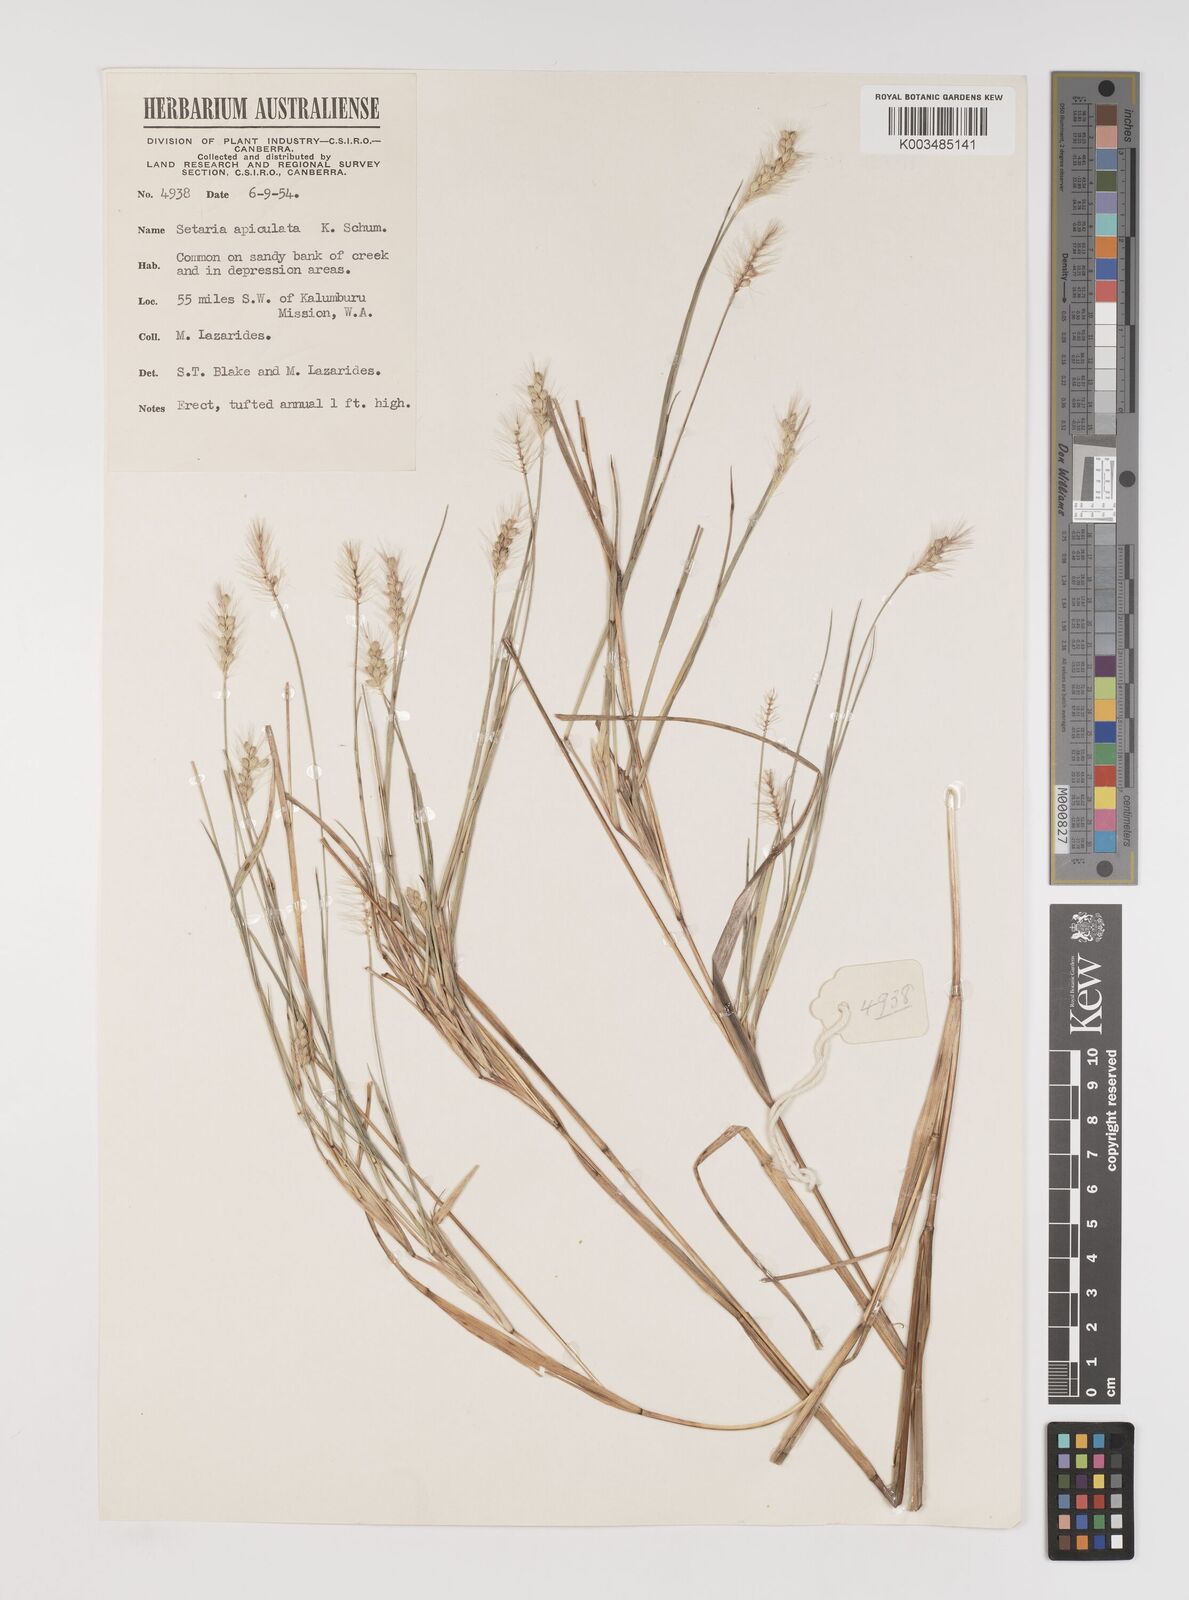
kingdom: Plantae
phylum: Tracheophyta
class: Liliopsida
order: Poales
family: Poaceae
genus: Setaria
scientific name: Setaria apiculata
